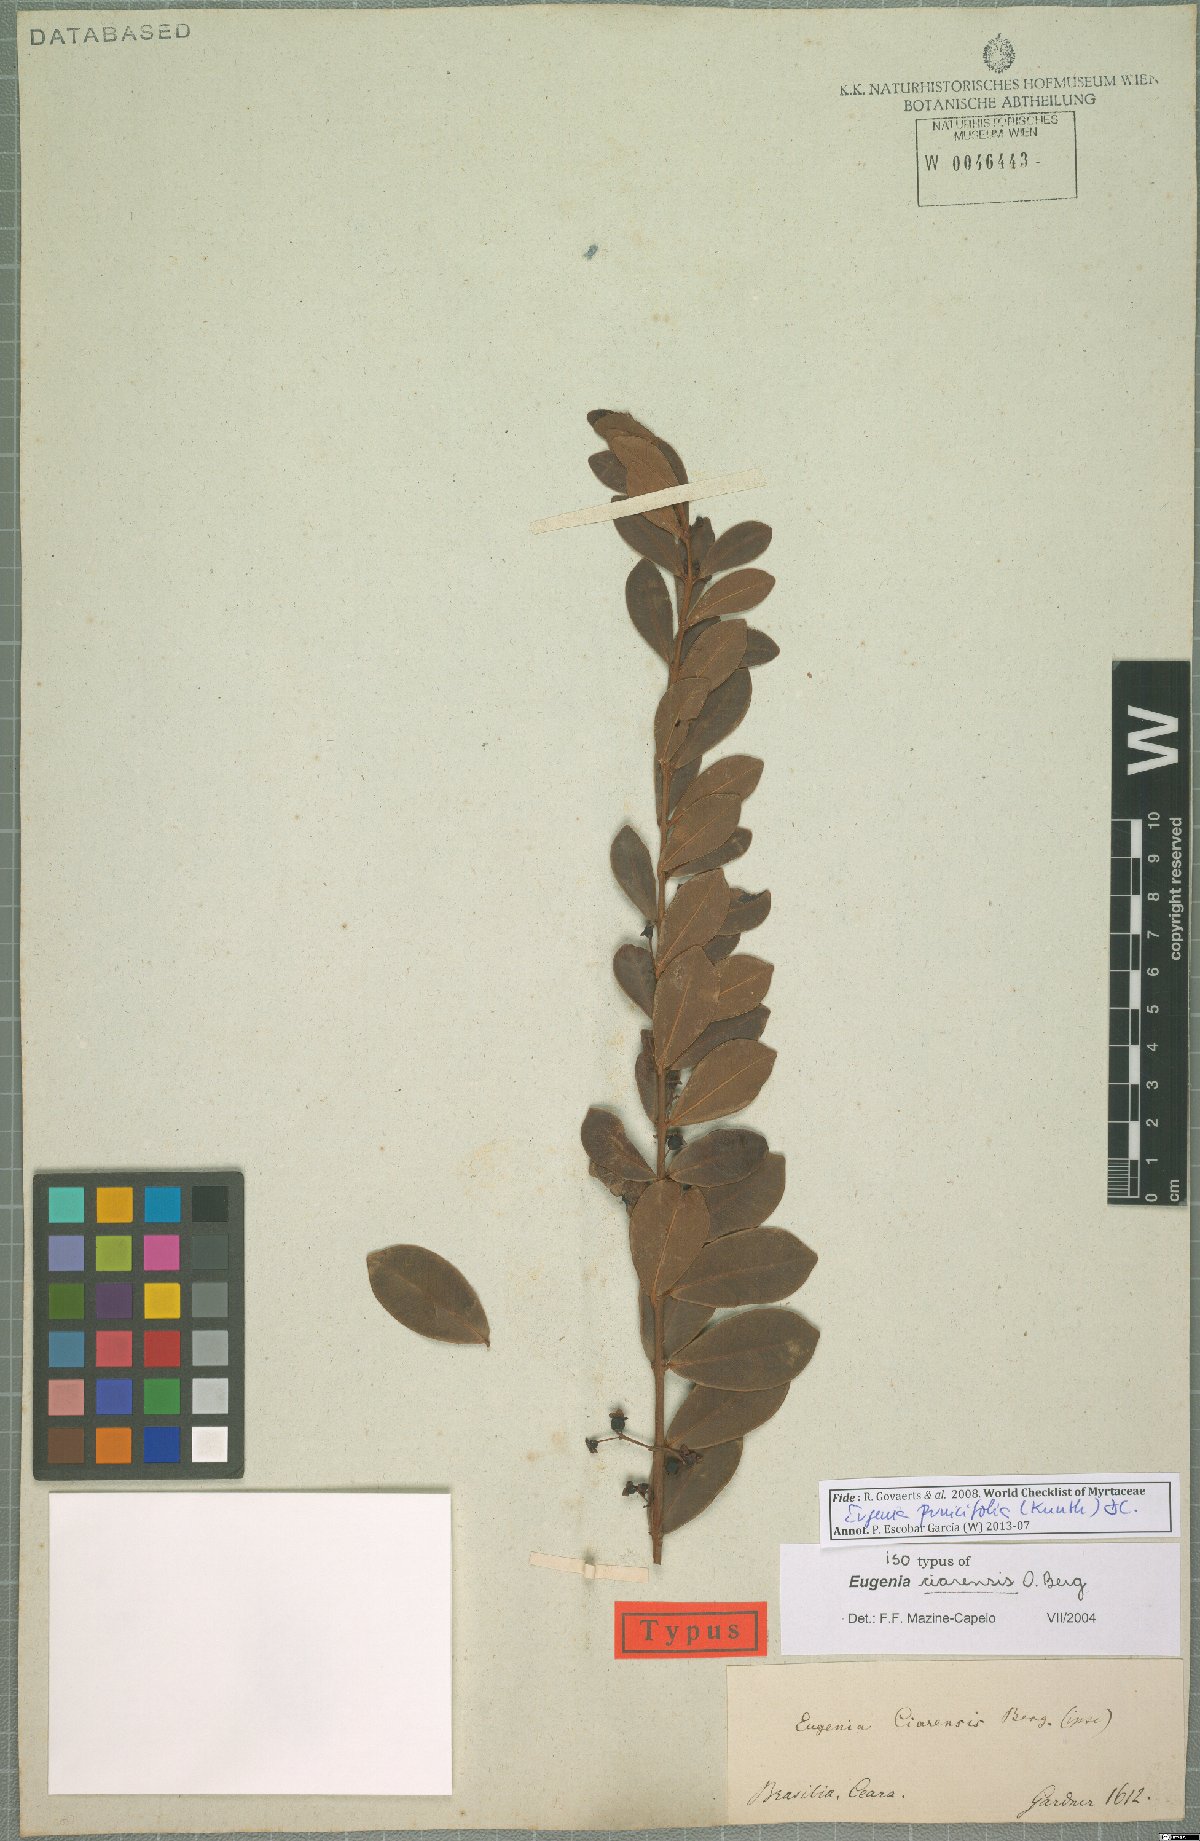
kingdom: Plantae
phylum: Tracheophyta
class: Magnoliopsida
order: Myrtales
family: Myrtaceae
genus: Eugenia
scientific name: Eugenia punicifolia
